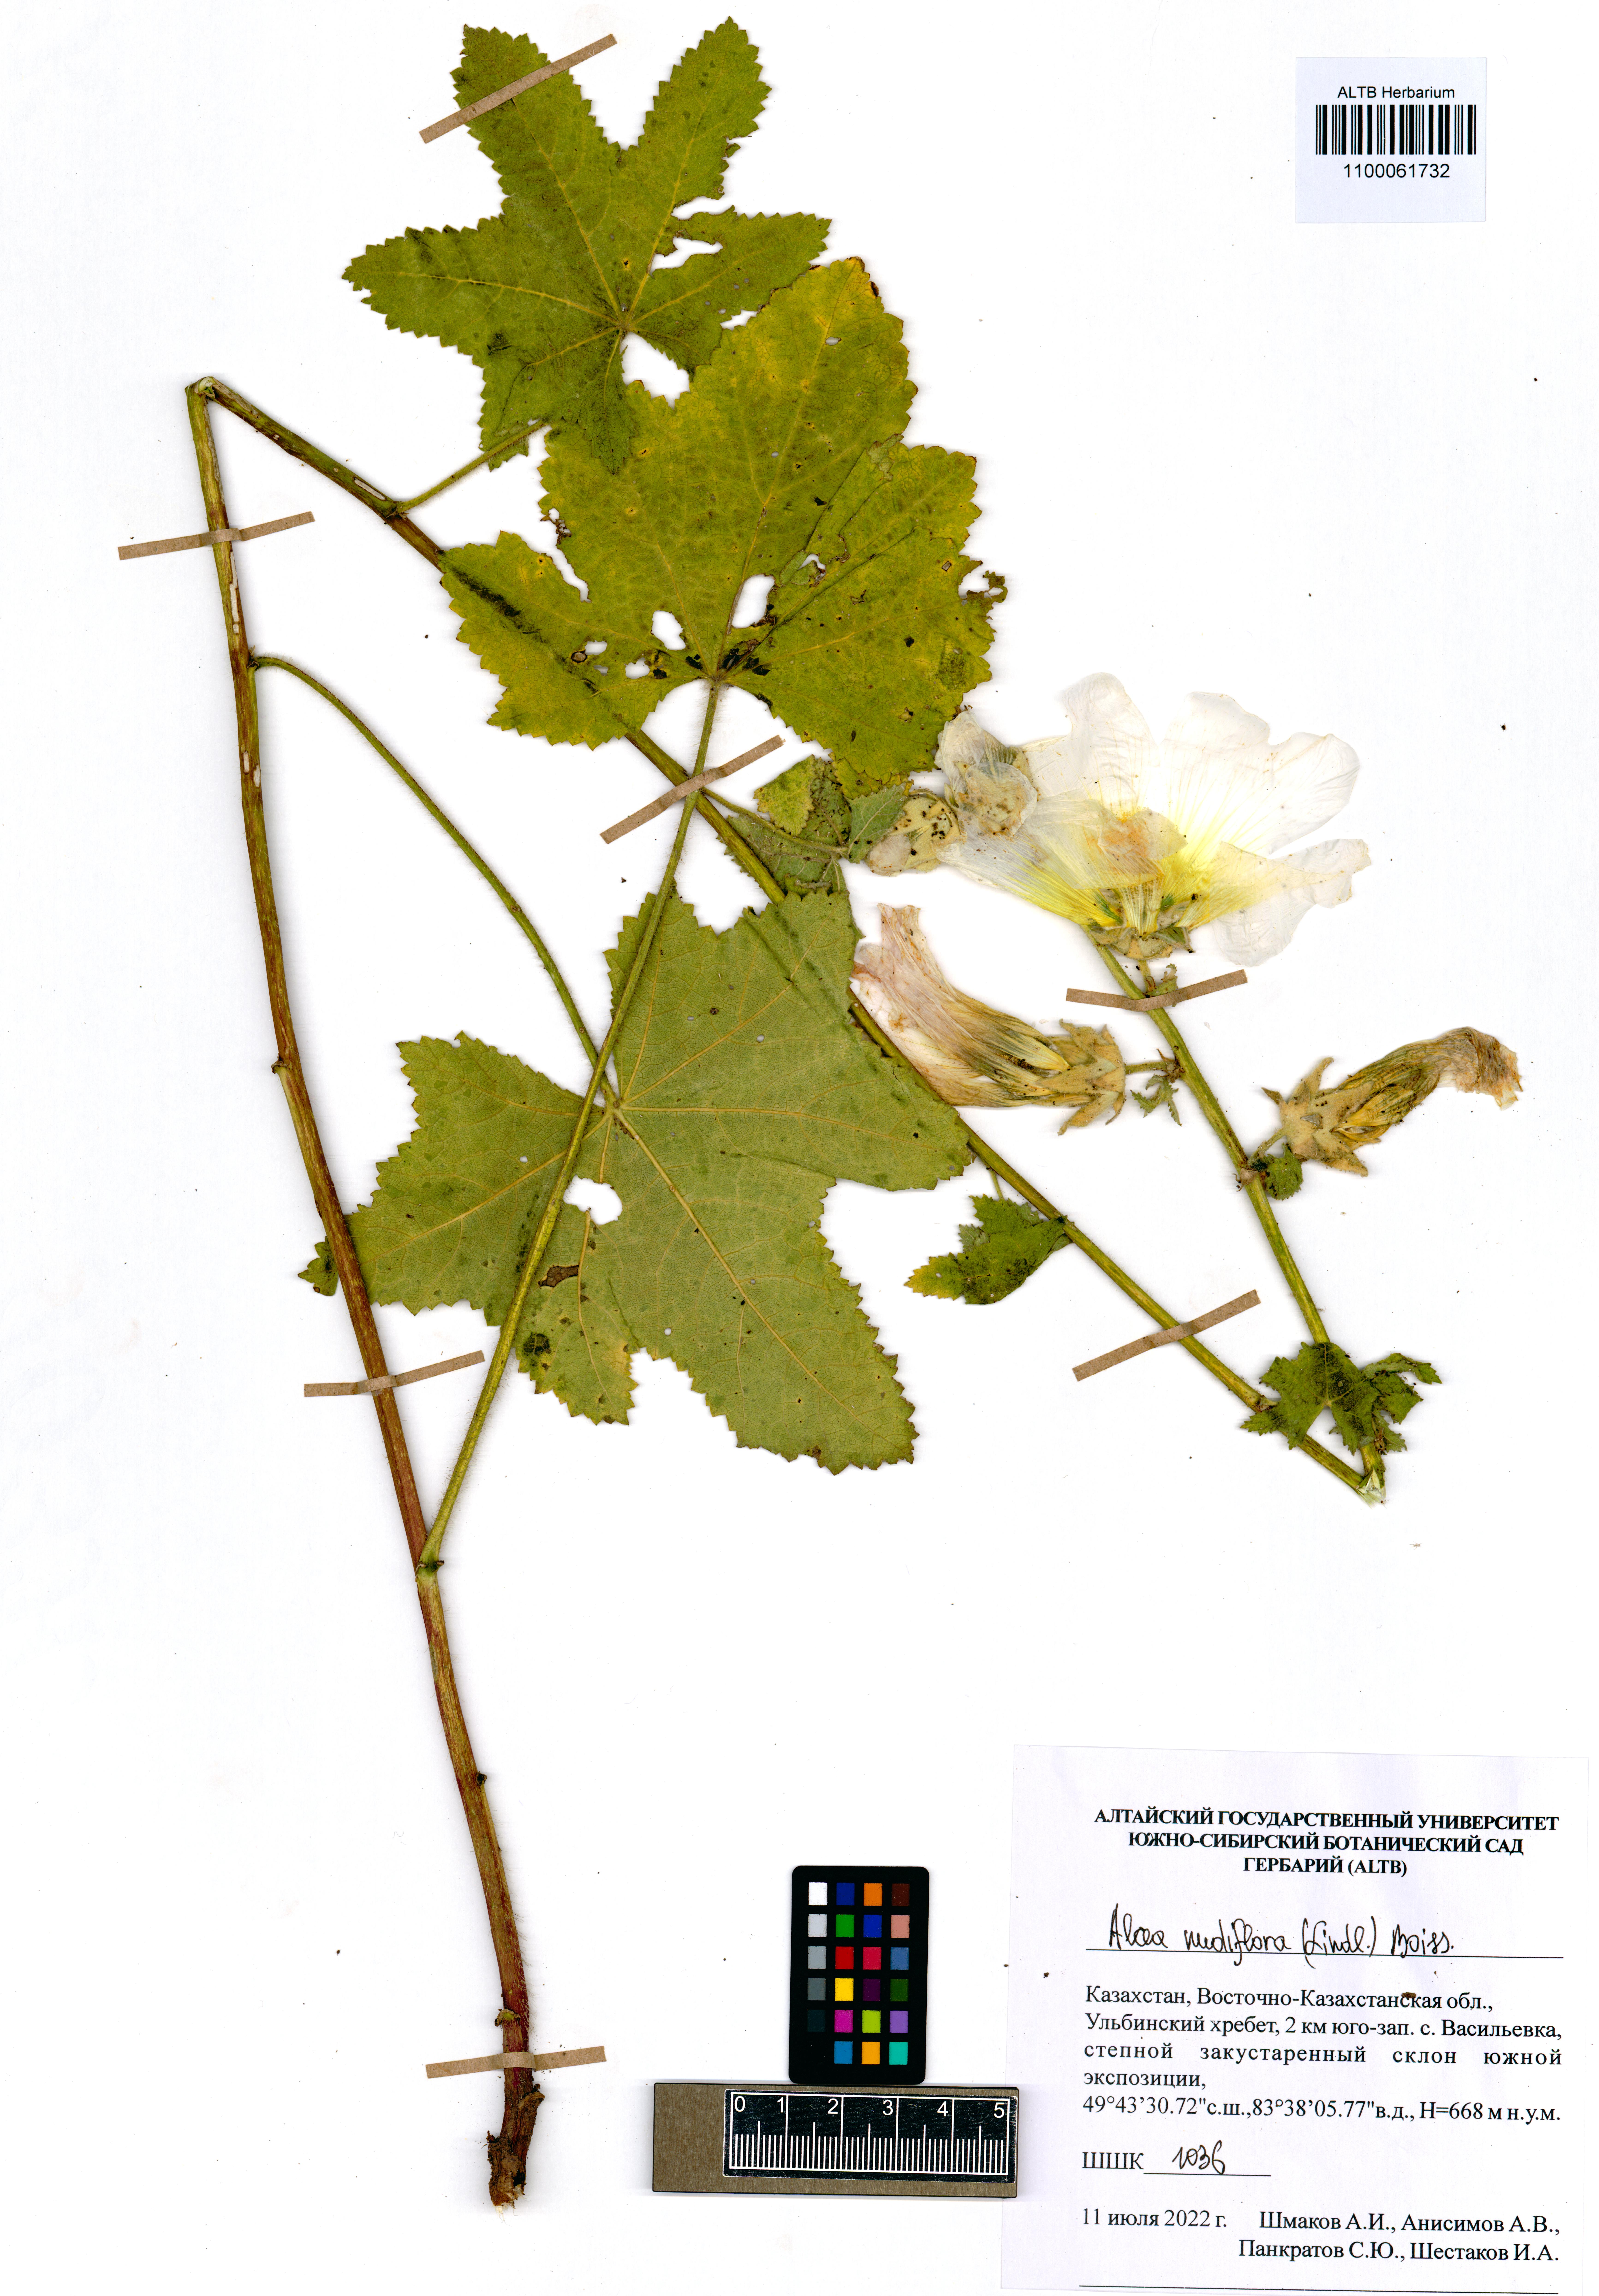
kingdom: Plantae
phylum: Tracheophyta
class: Magnoliopsida
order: Malvales
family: Malvaceae
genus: Alcea
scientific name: Alcea nudiflora
